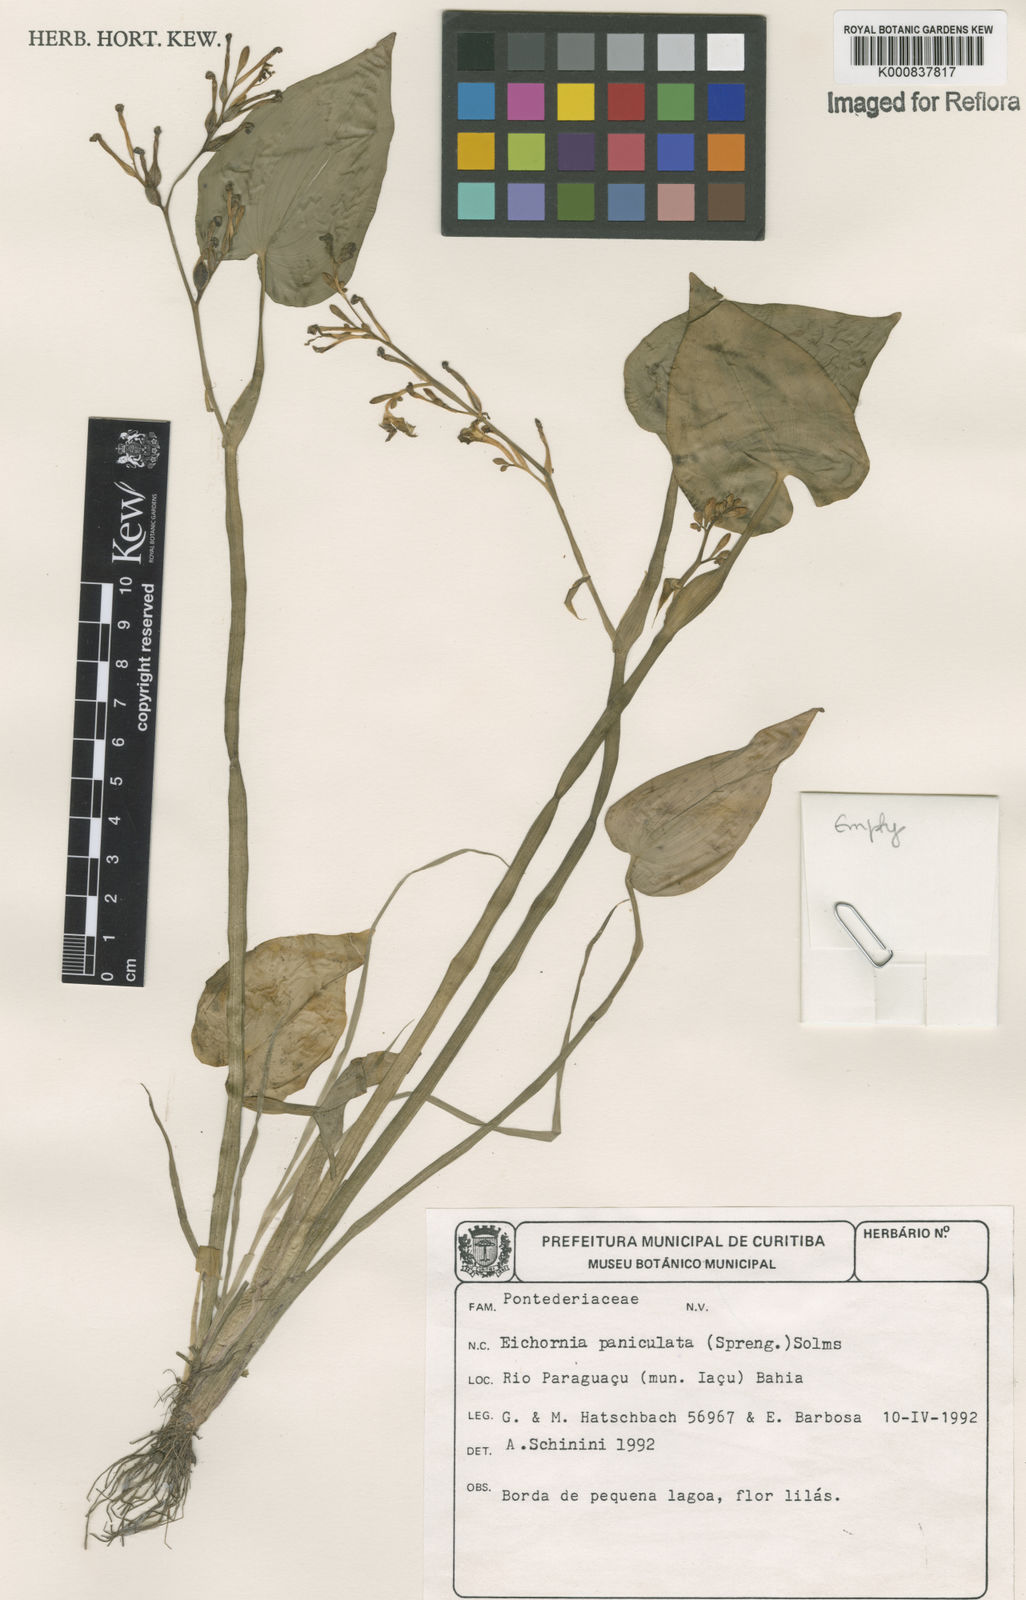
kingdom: Plantae
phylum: Tracheophyta
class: Liliopsida
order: Commelinales
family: Pontederiaceae
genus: Pontederia
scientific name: Pontederia paniculata
